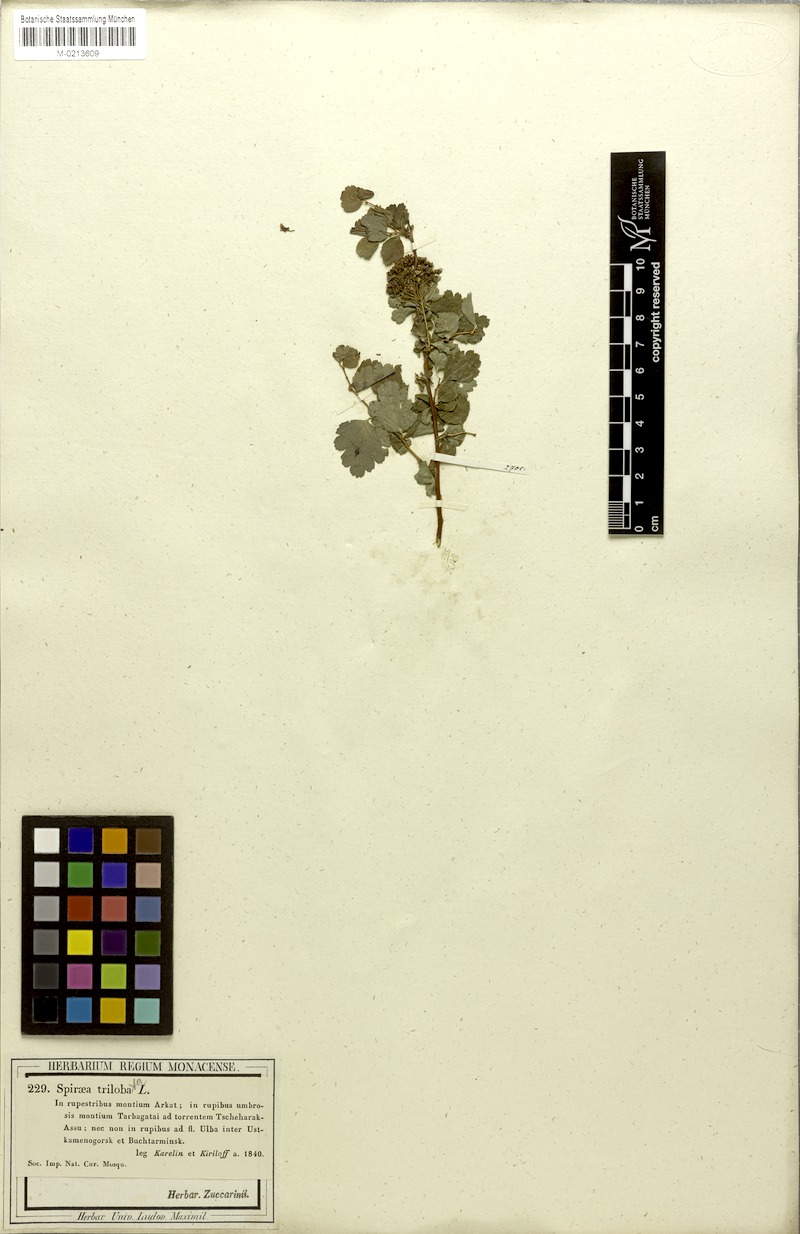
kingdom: Plantae
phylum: Tracheophyta
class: Magnoliopsida
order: Rosales
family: Rosaceae
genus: Spiraea
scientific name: Spiraea trilobata
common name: Asian meadowsweet
